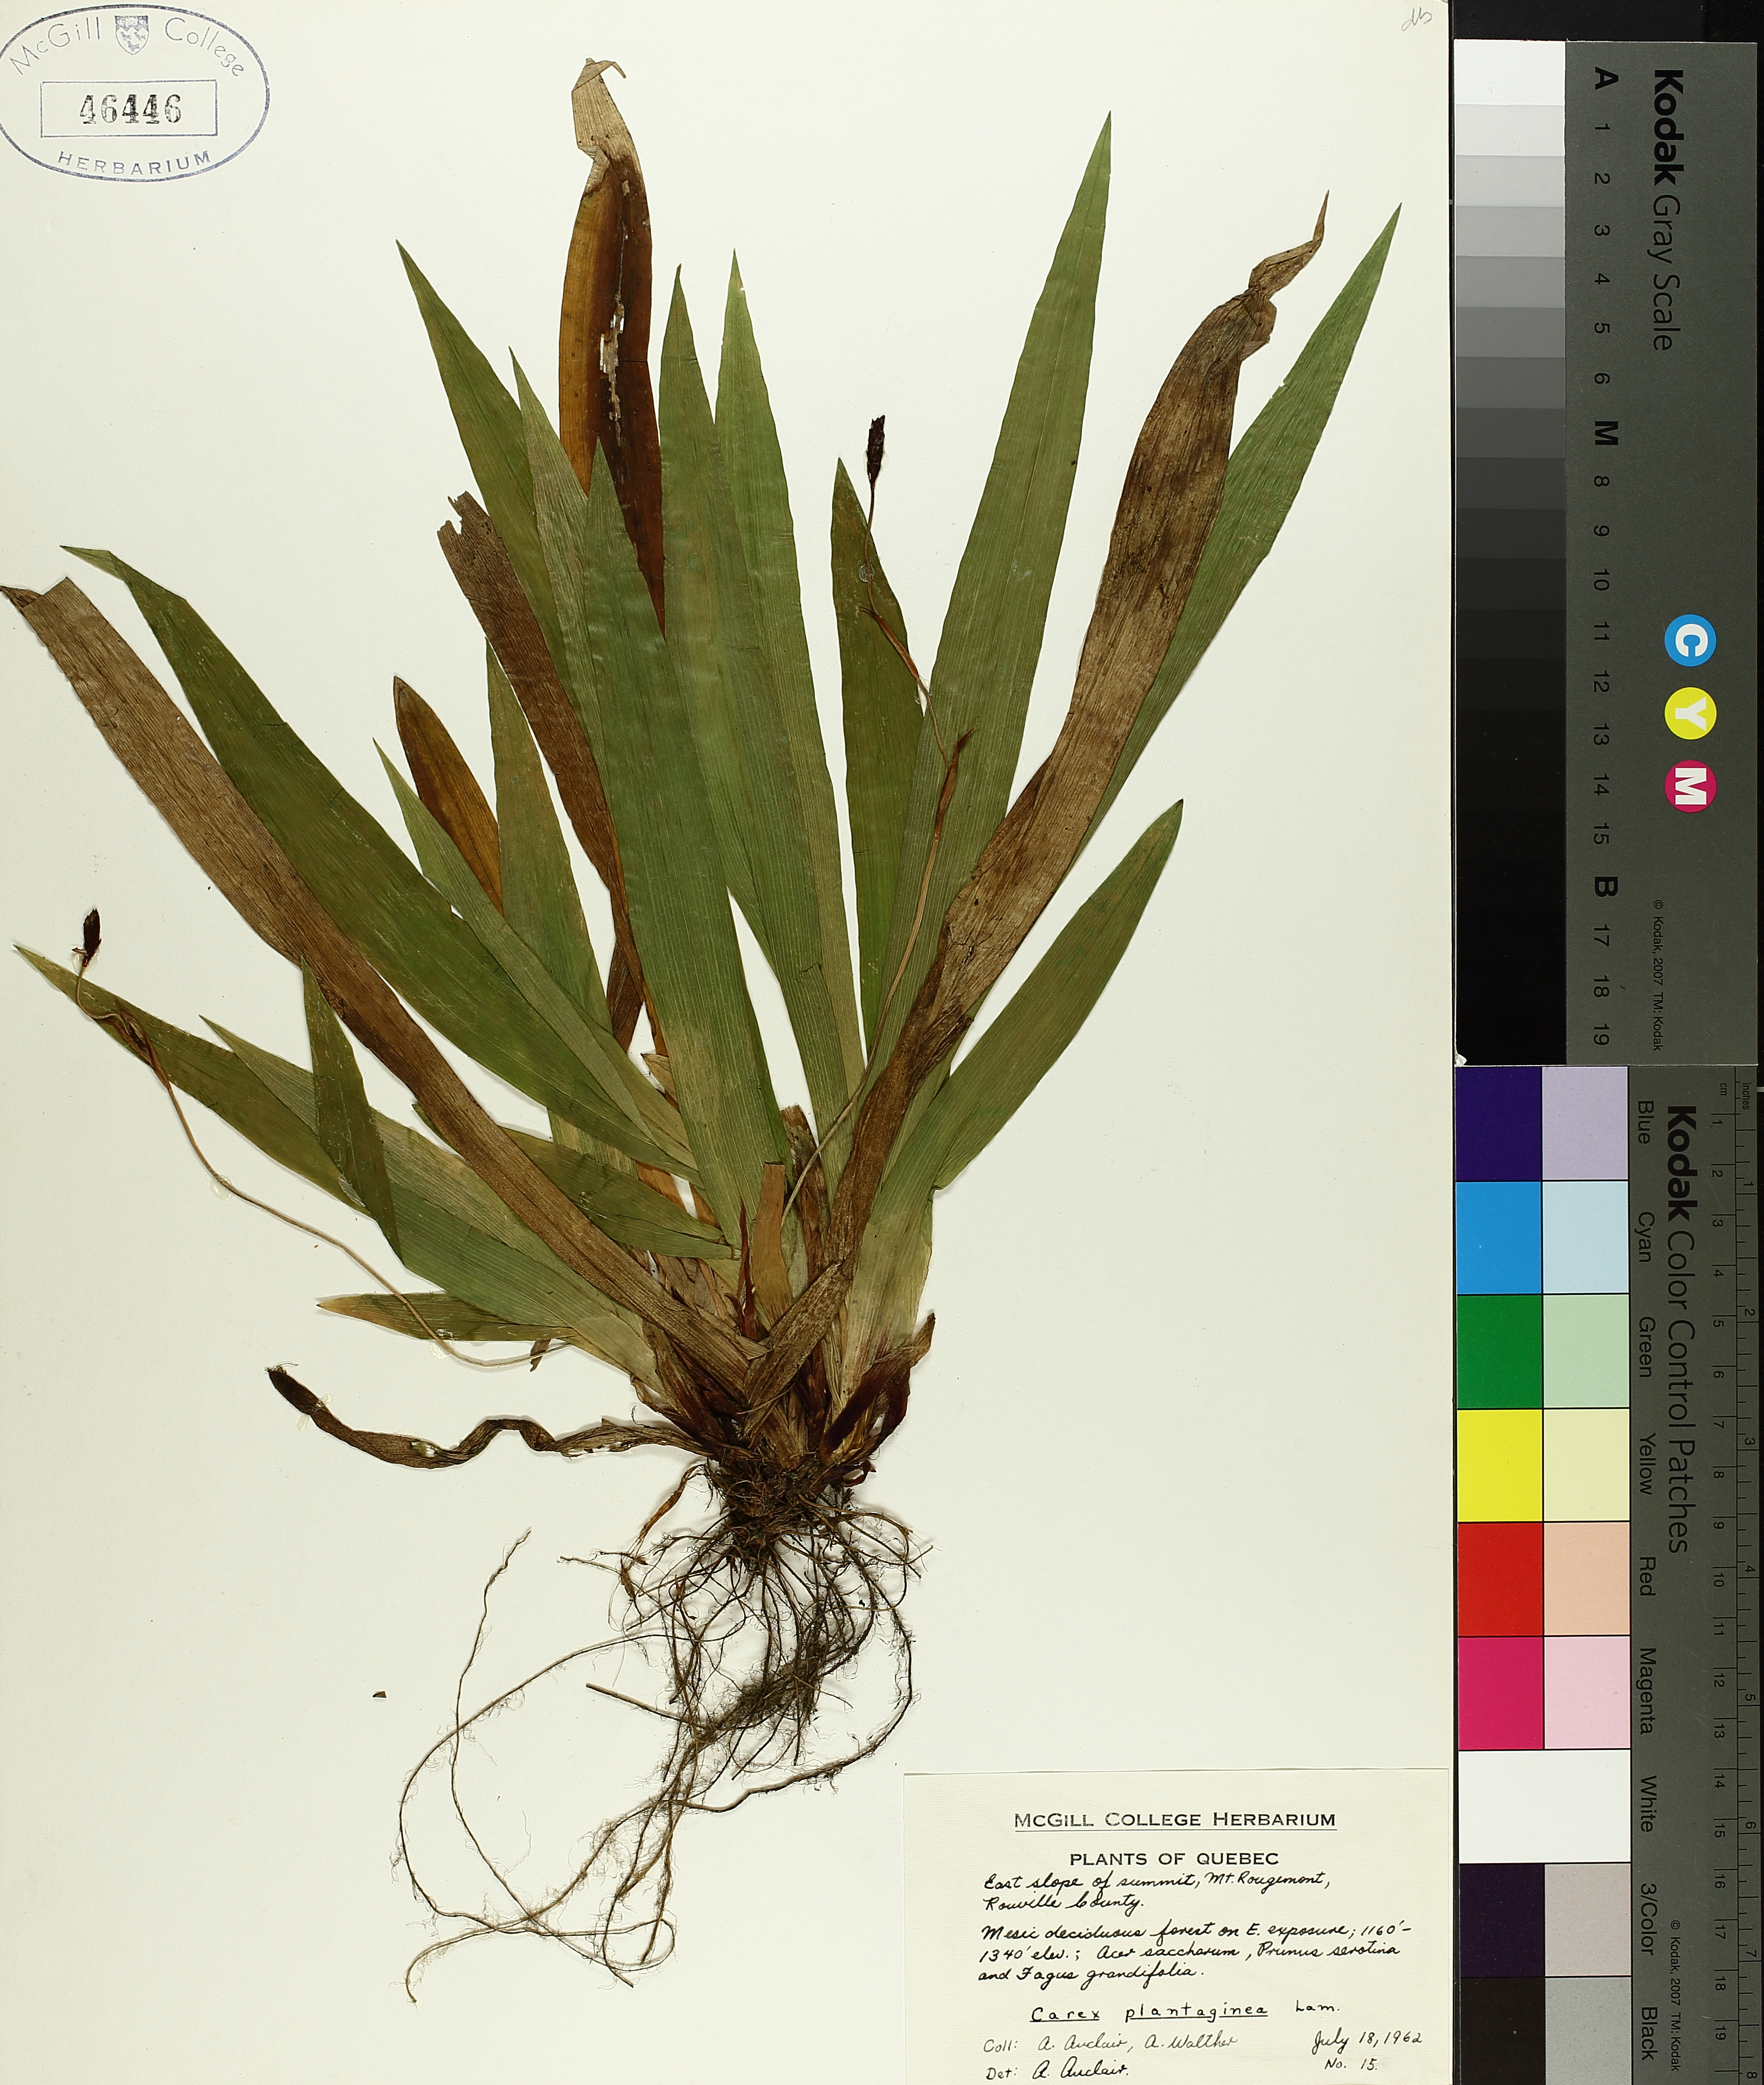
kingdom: Plantae
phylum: Tracheophyta
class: Liliopsida
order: Poales
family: Cyperaceae
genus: Carex
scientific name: Carex plantaginea
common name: Plantain-leaved sedge
